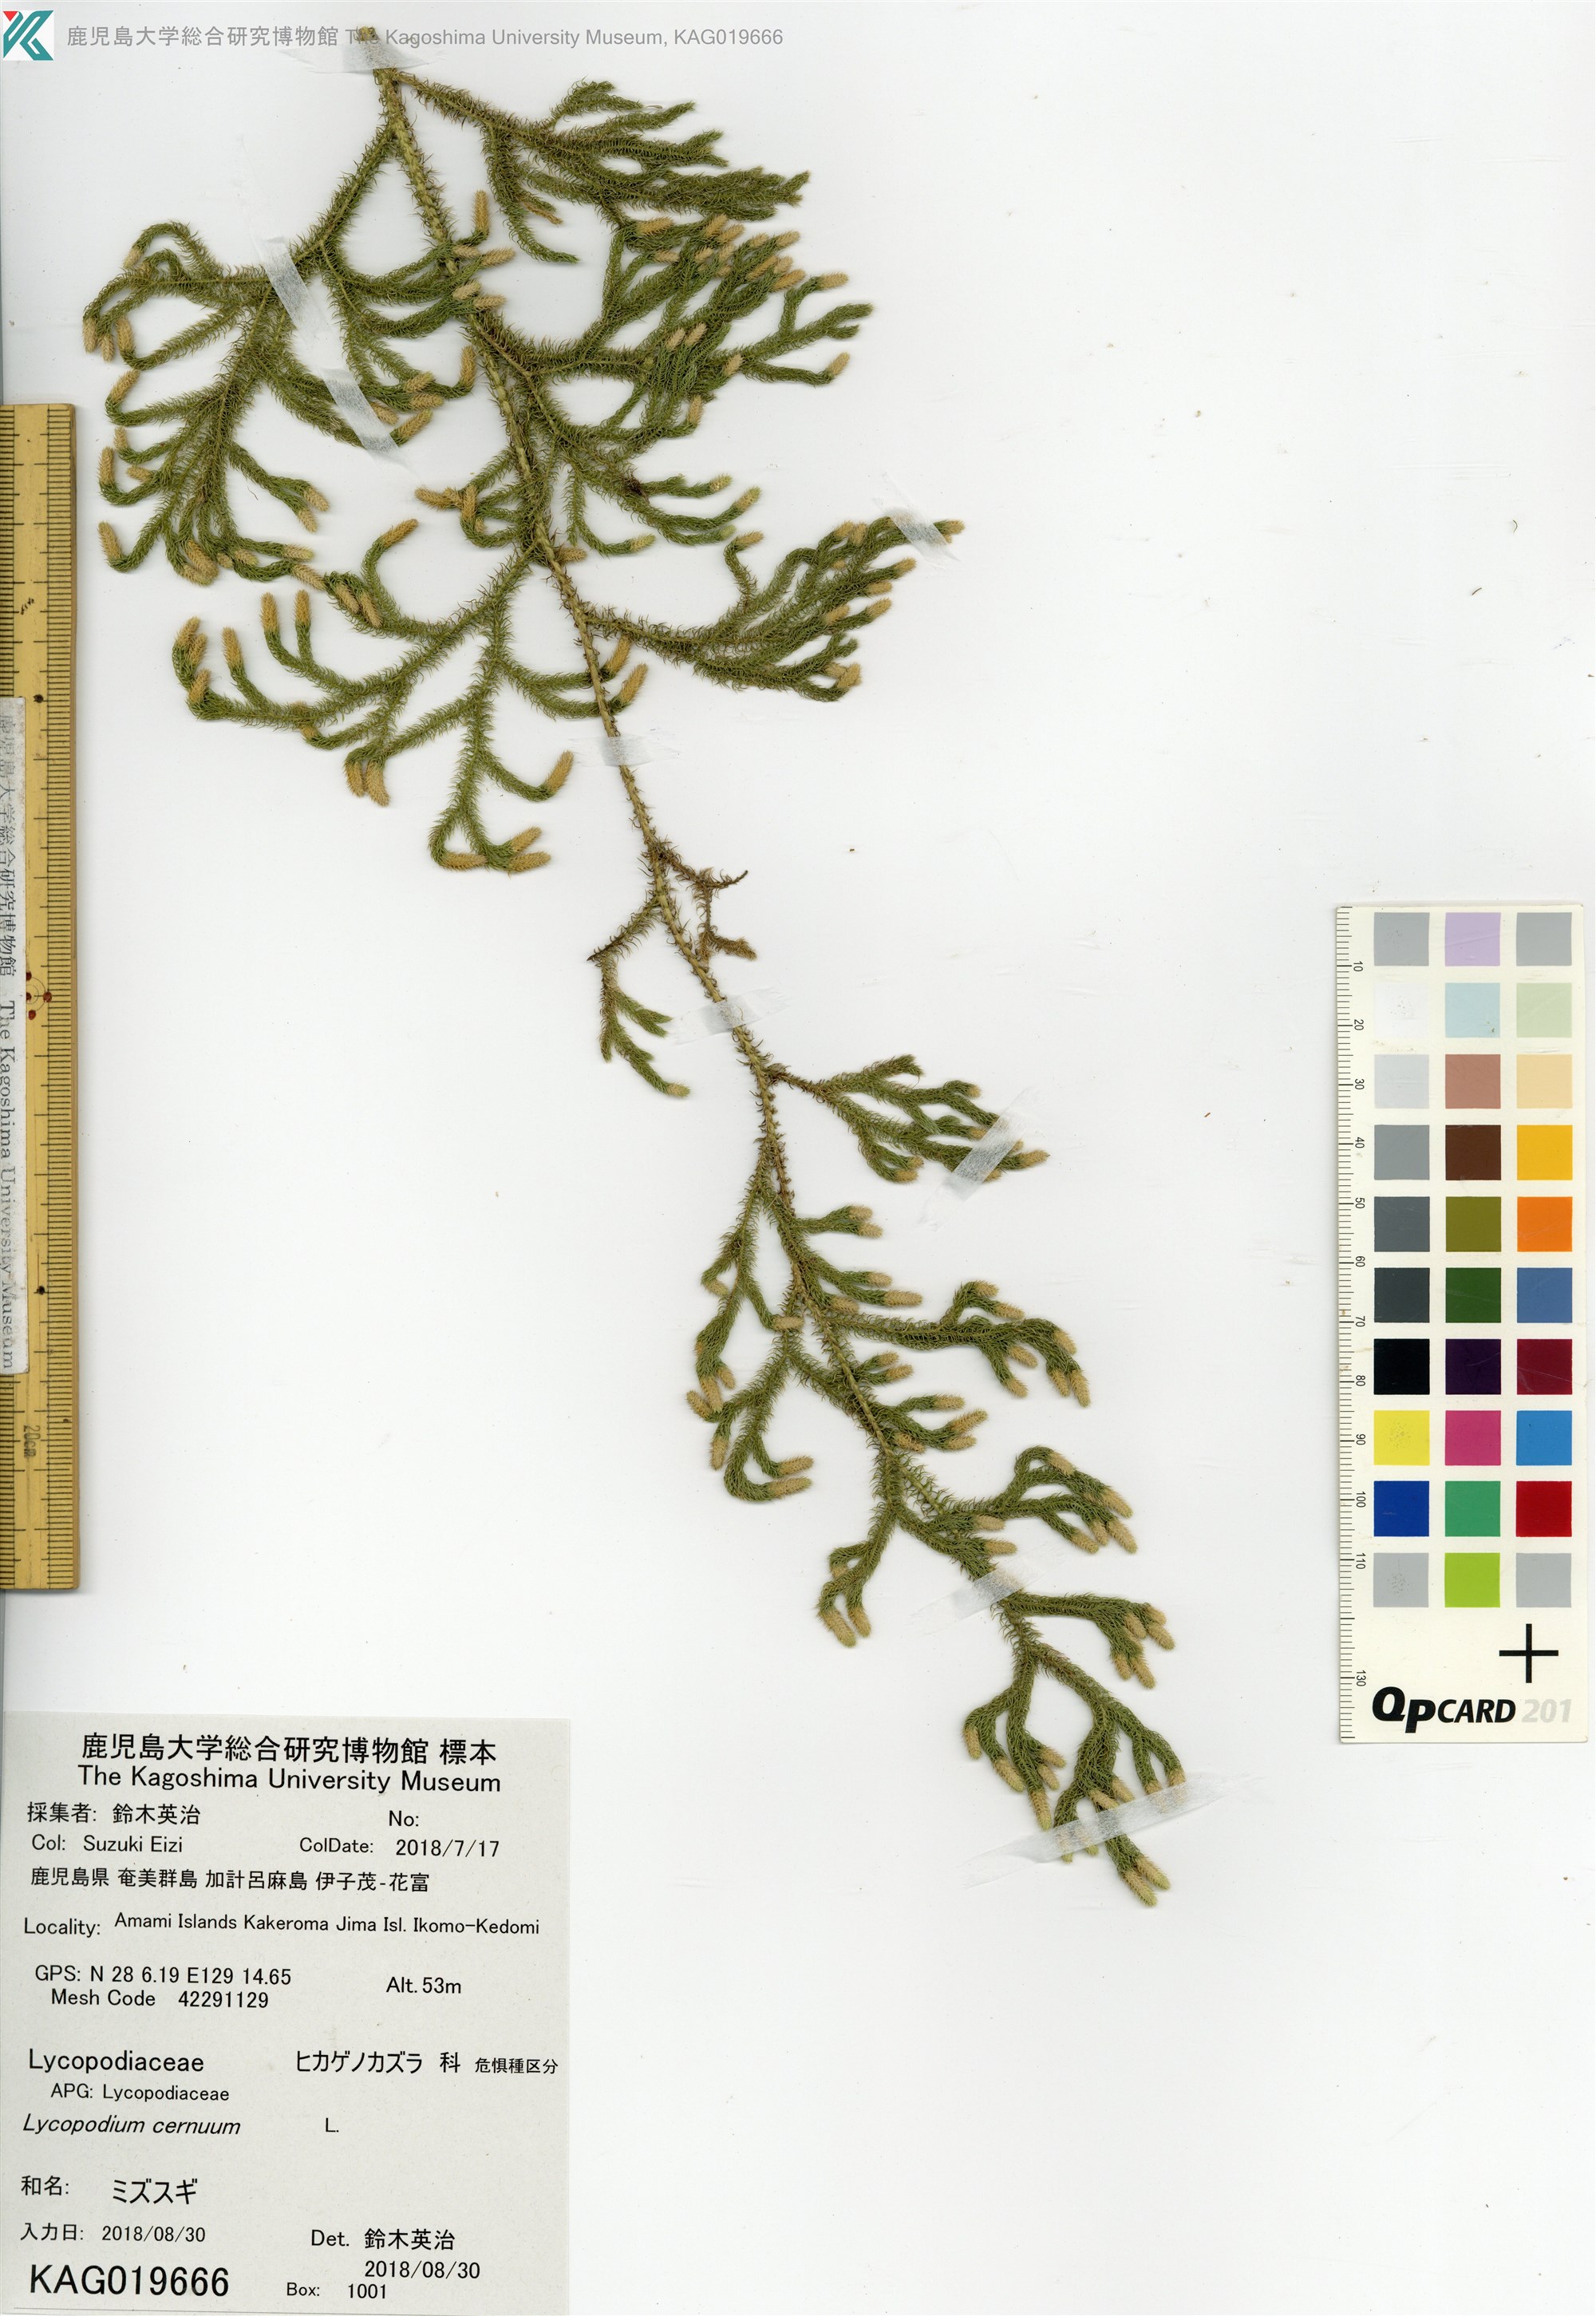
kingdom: Plantae
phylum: Tracheophyta
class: Lycopodiopsida
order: Lycopodiales
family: Lycopodiaceae
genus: Palhinhaea
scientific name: Palhinhaea cernua
